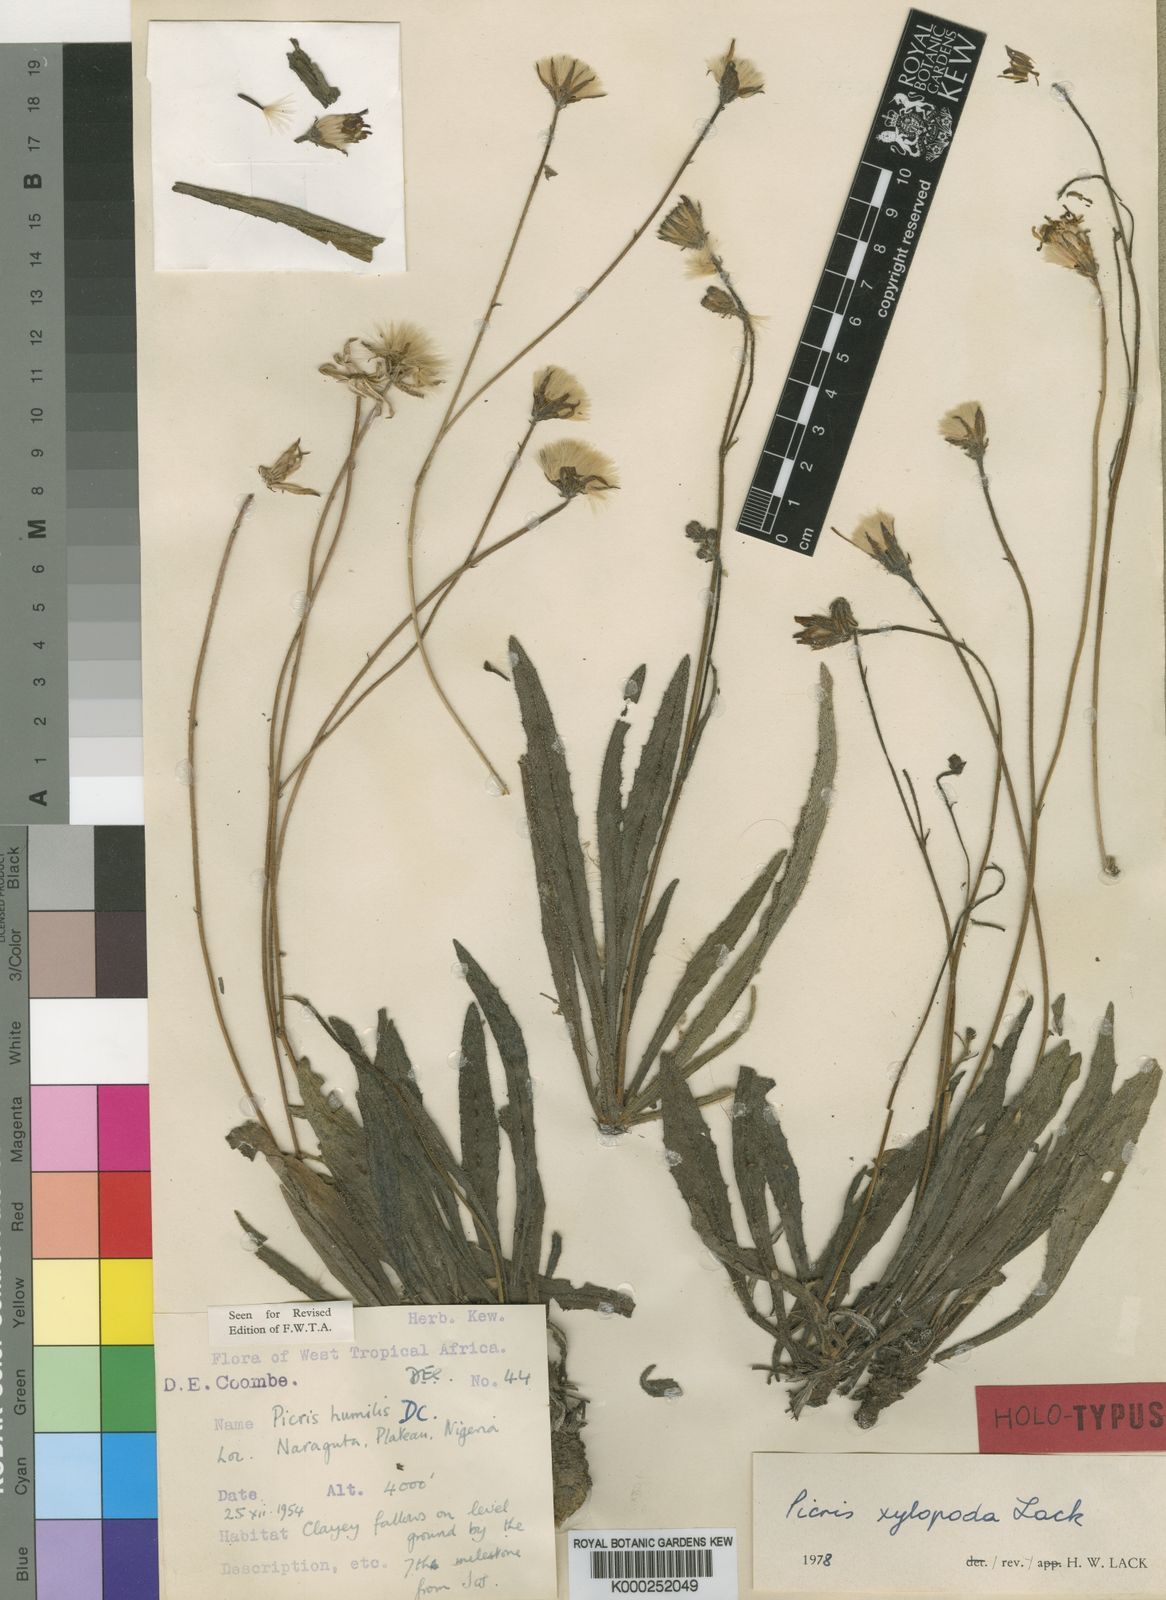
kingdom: Plantae
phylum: Tracheophyta
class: Magnoliopsida
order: Asterales
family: Asteraceae
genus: Picris
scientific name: Picris xylopoda
